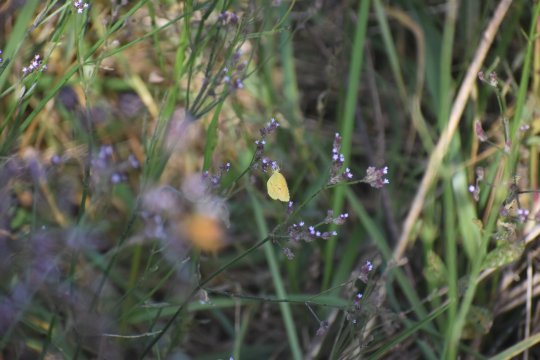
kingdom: Animalia
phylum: Arthropoda
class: Insecta
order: Lepidoptera
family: Pieridae
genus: Abaeis
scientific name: Abaeis nicippe
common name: Sleepy Orange
